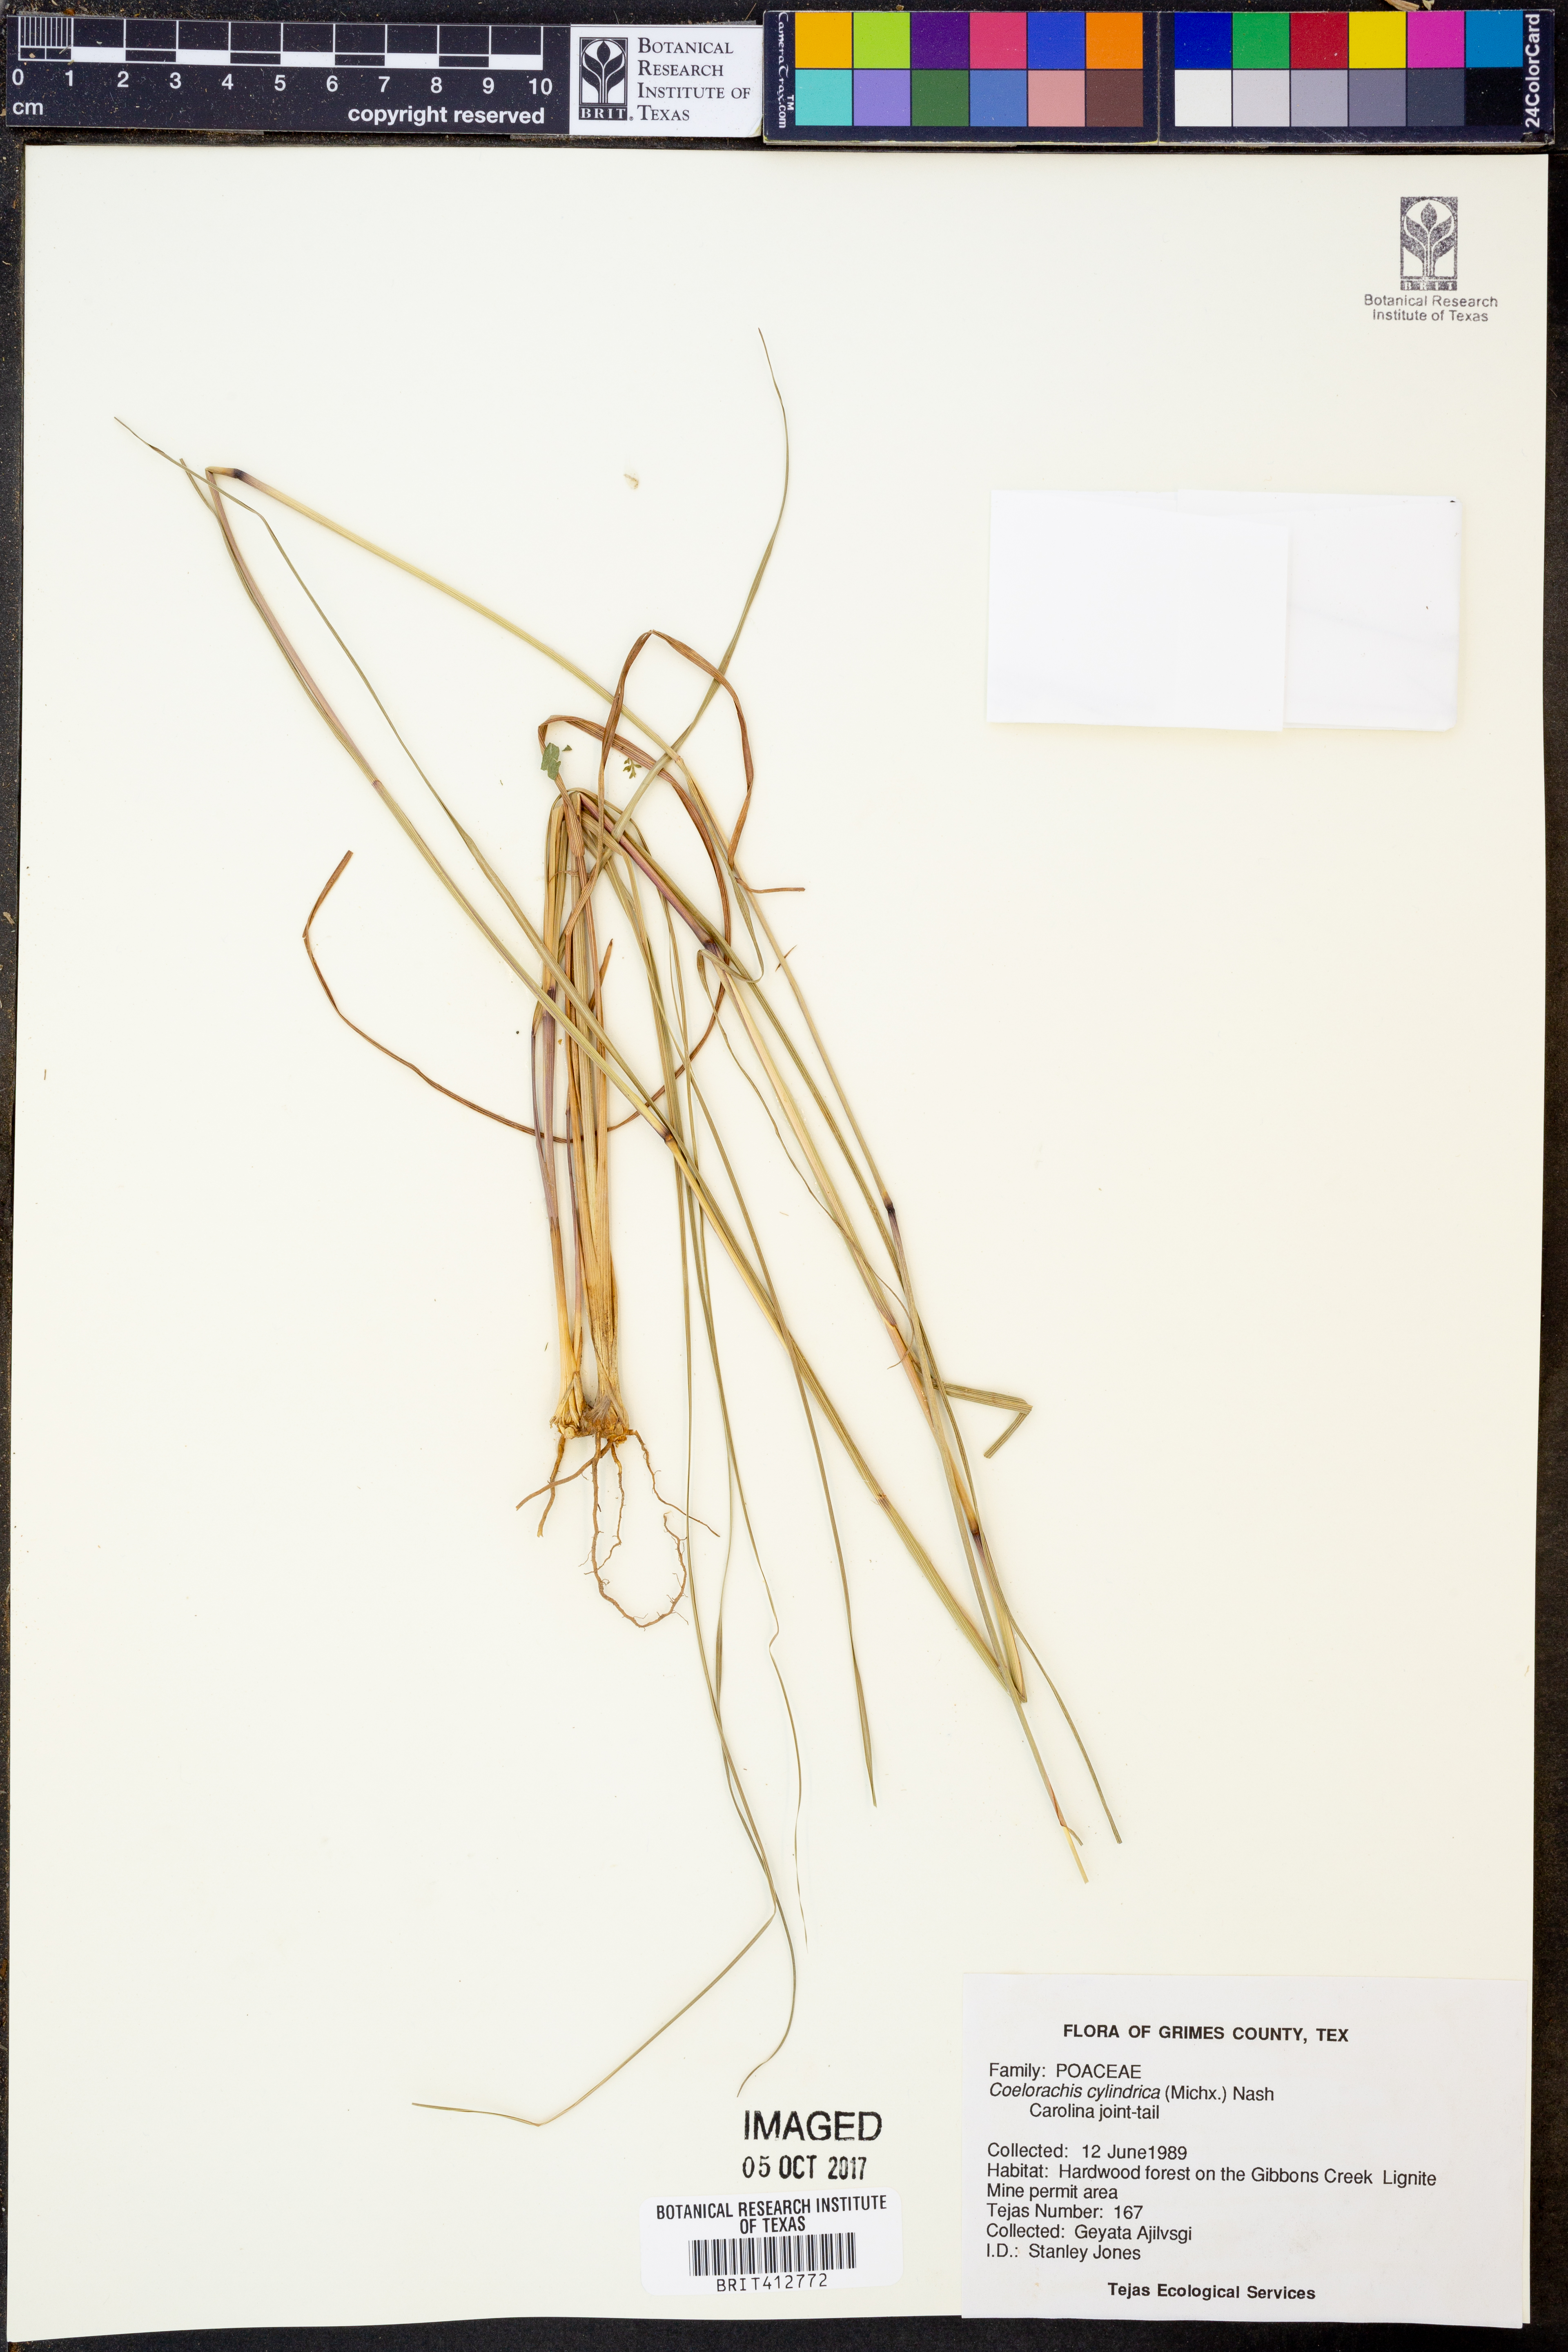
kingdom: Plantae
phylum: Tracheophyta
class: Liliopsida
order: Poales
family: Poaceae
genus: Rottboellia
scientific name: Rottboellia campestris
